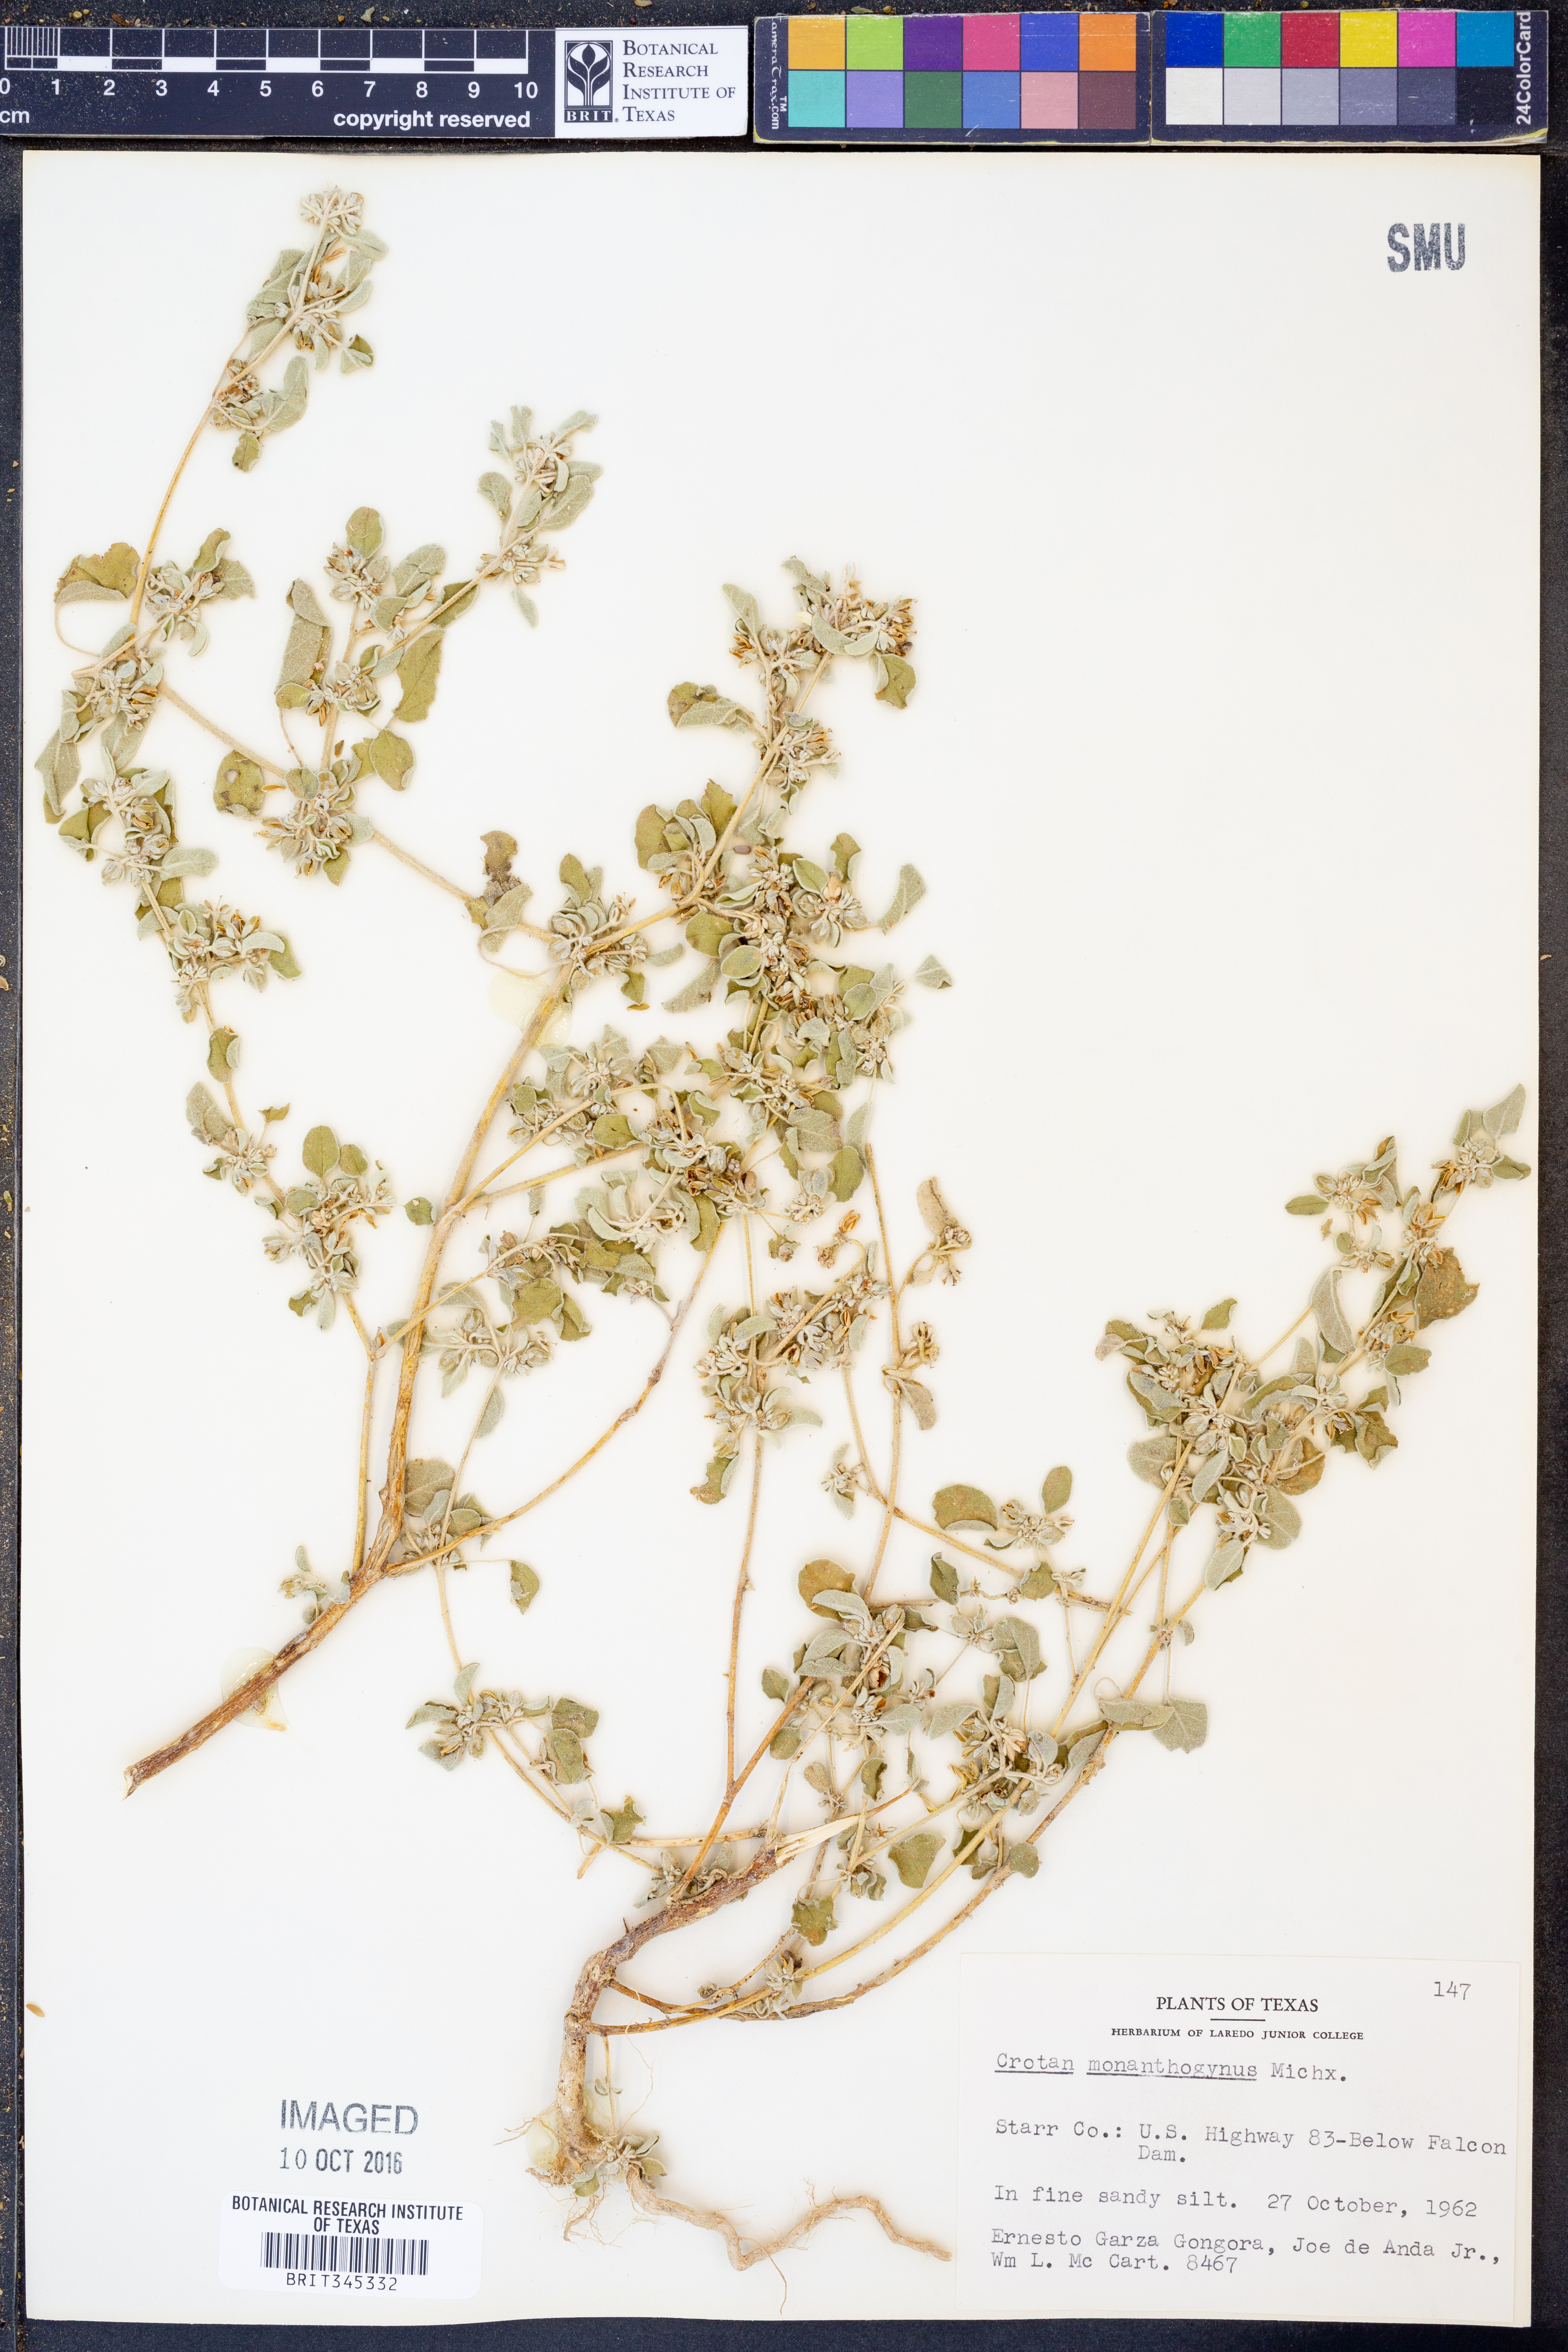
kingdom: Plantae
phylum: Tracheophyta
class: Magnoliopsida
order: Malpighiales
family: Euphorbiaceae
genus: Croton
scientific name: Croton monanthogynus
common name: One-seed croton
